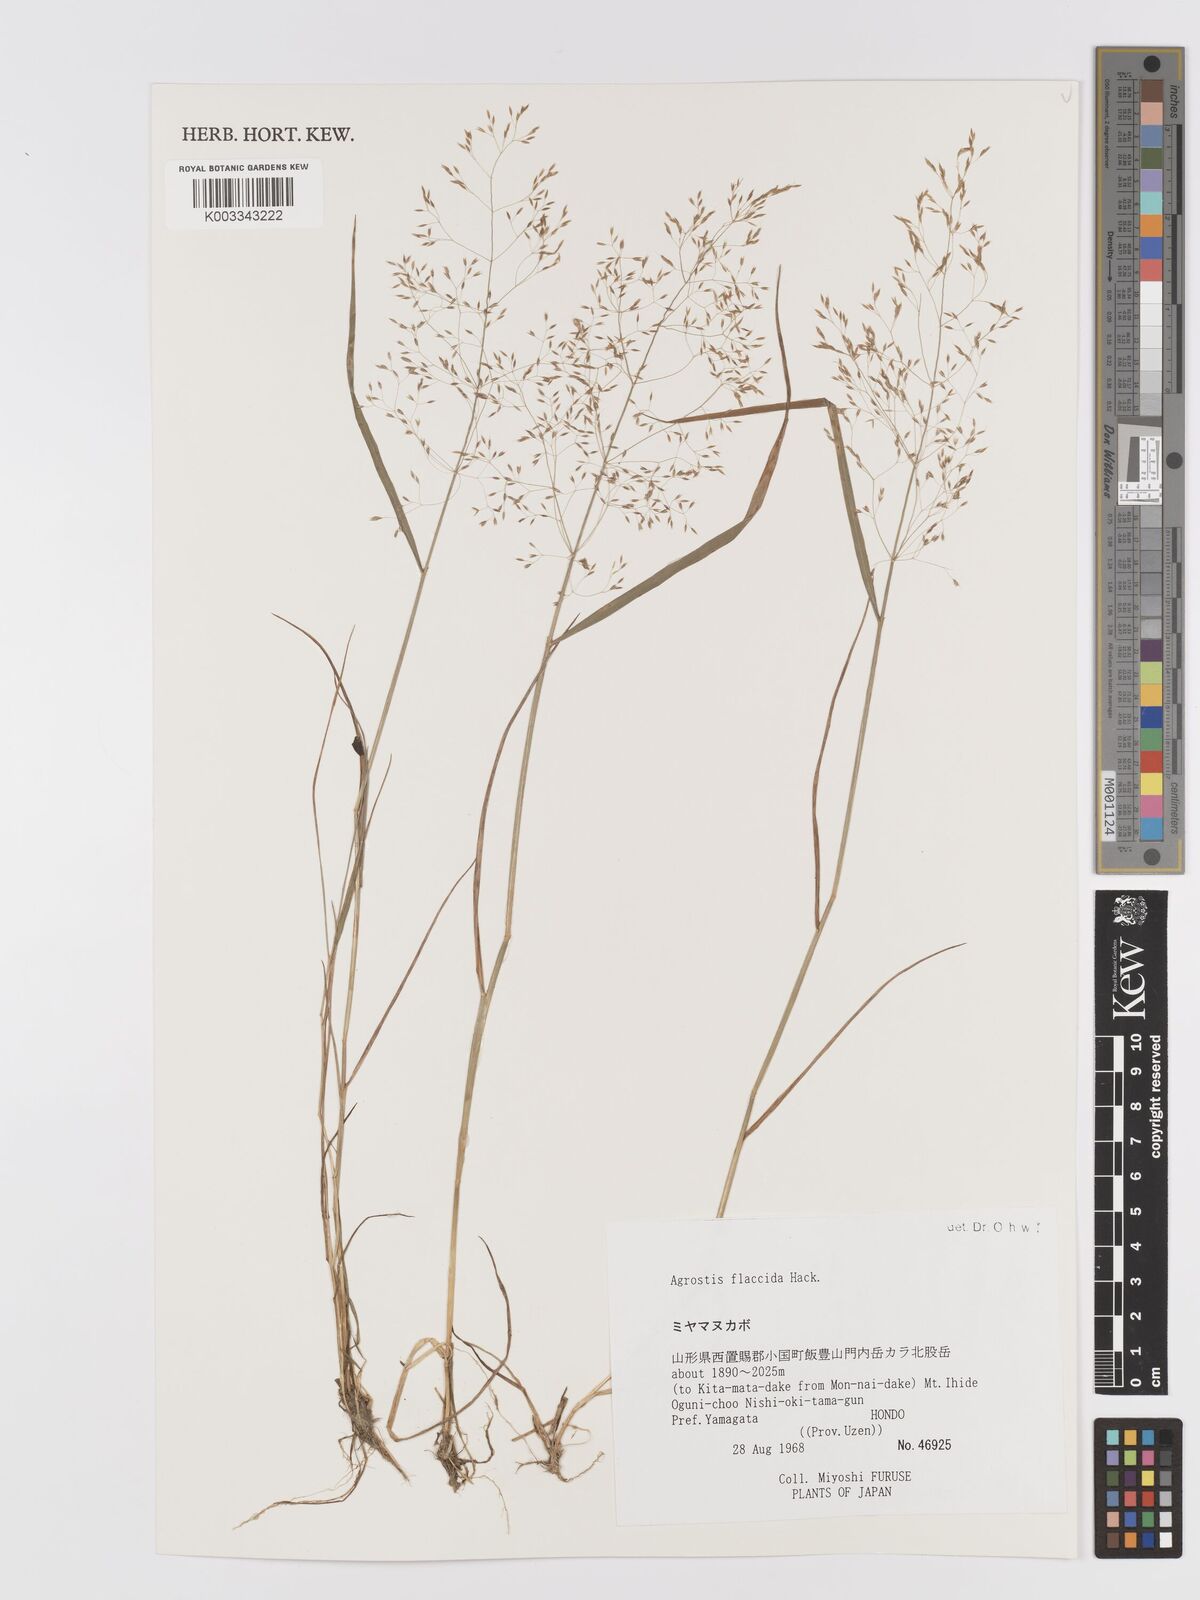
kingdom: Plantae
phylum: Tracheophyta
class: Liliopsida
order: Poales
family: Poaceae
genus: Agrostis
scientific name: Agrostis flaccida
